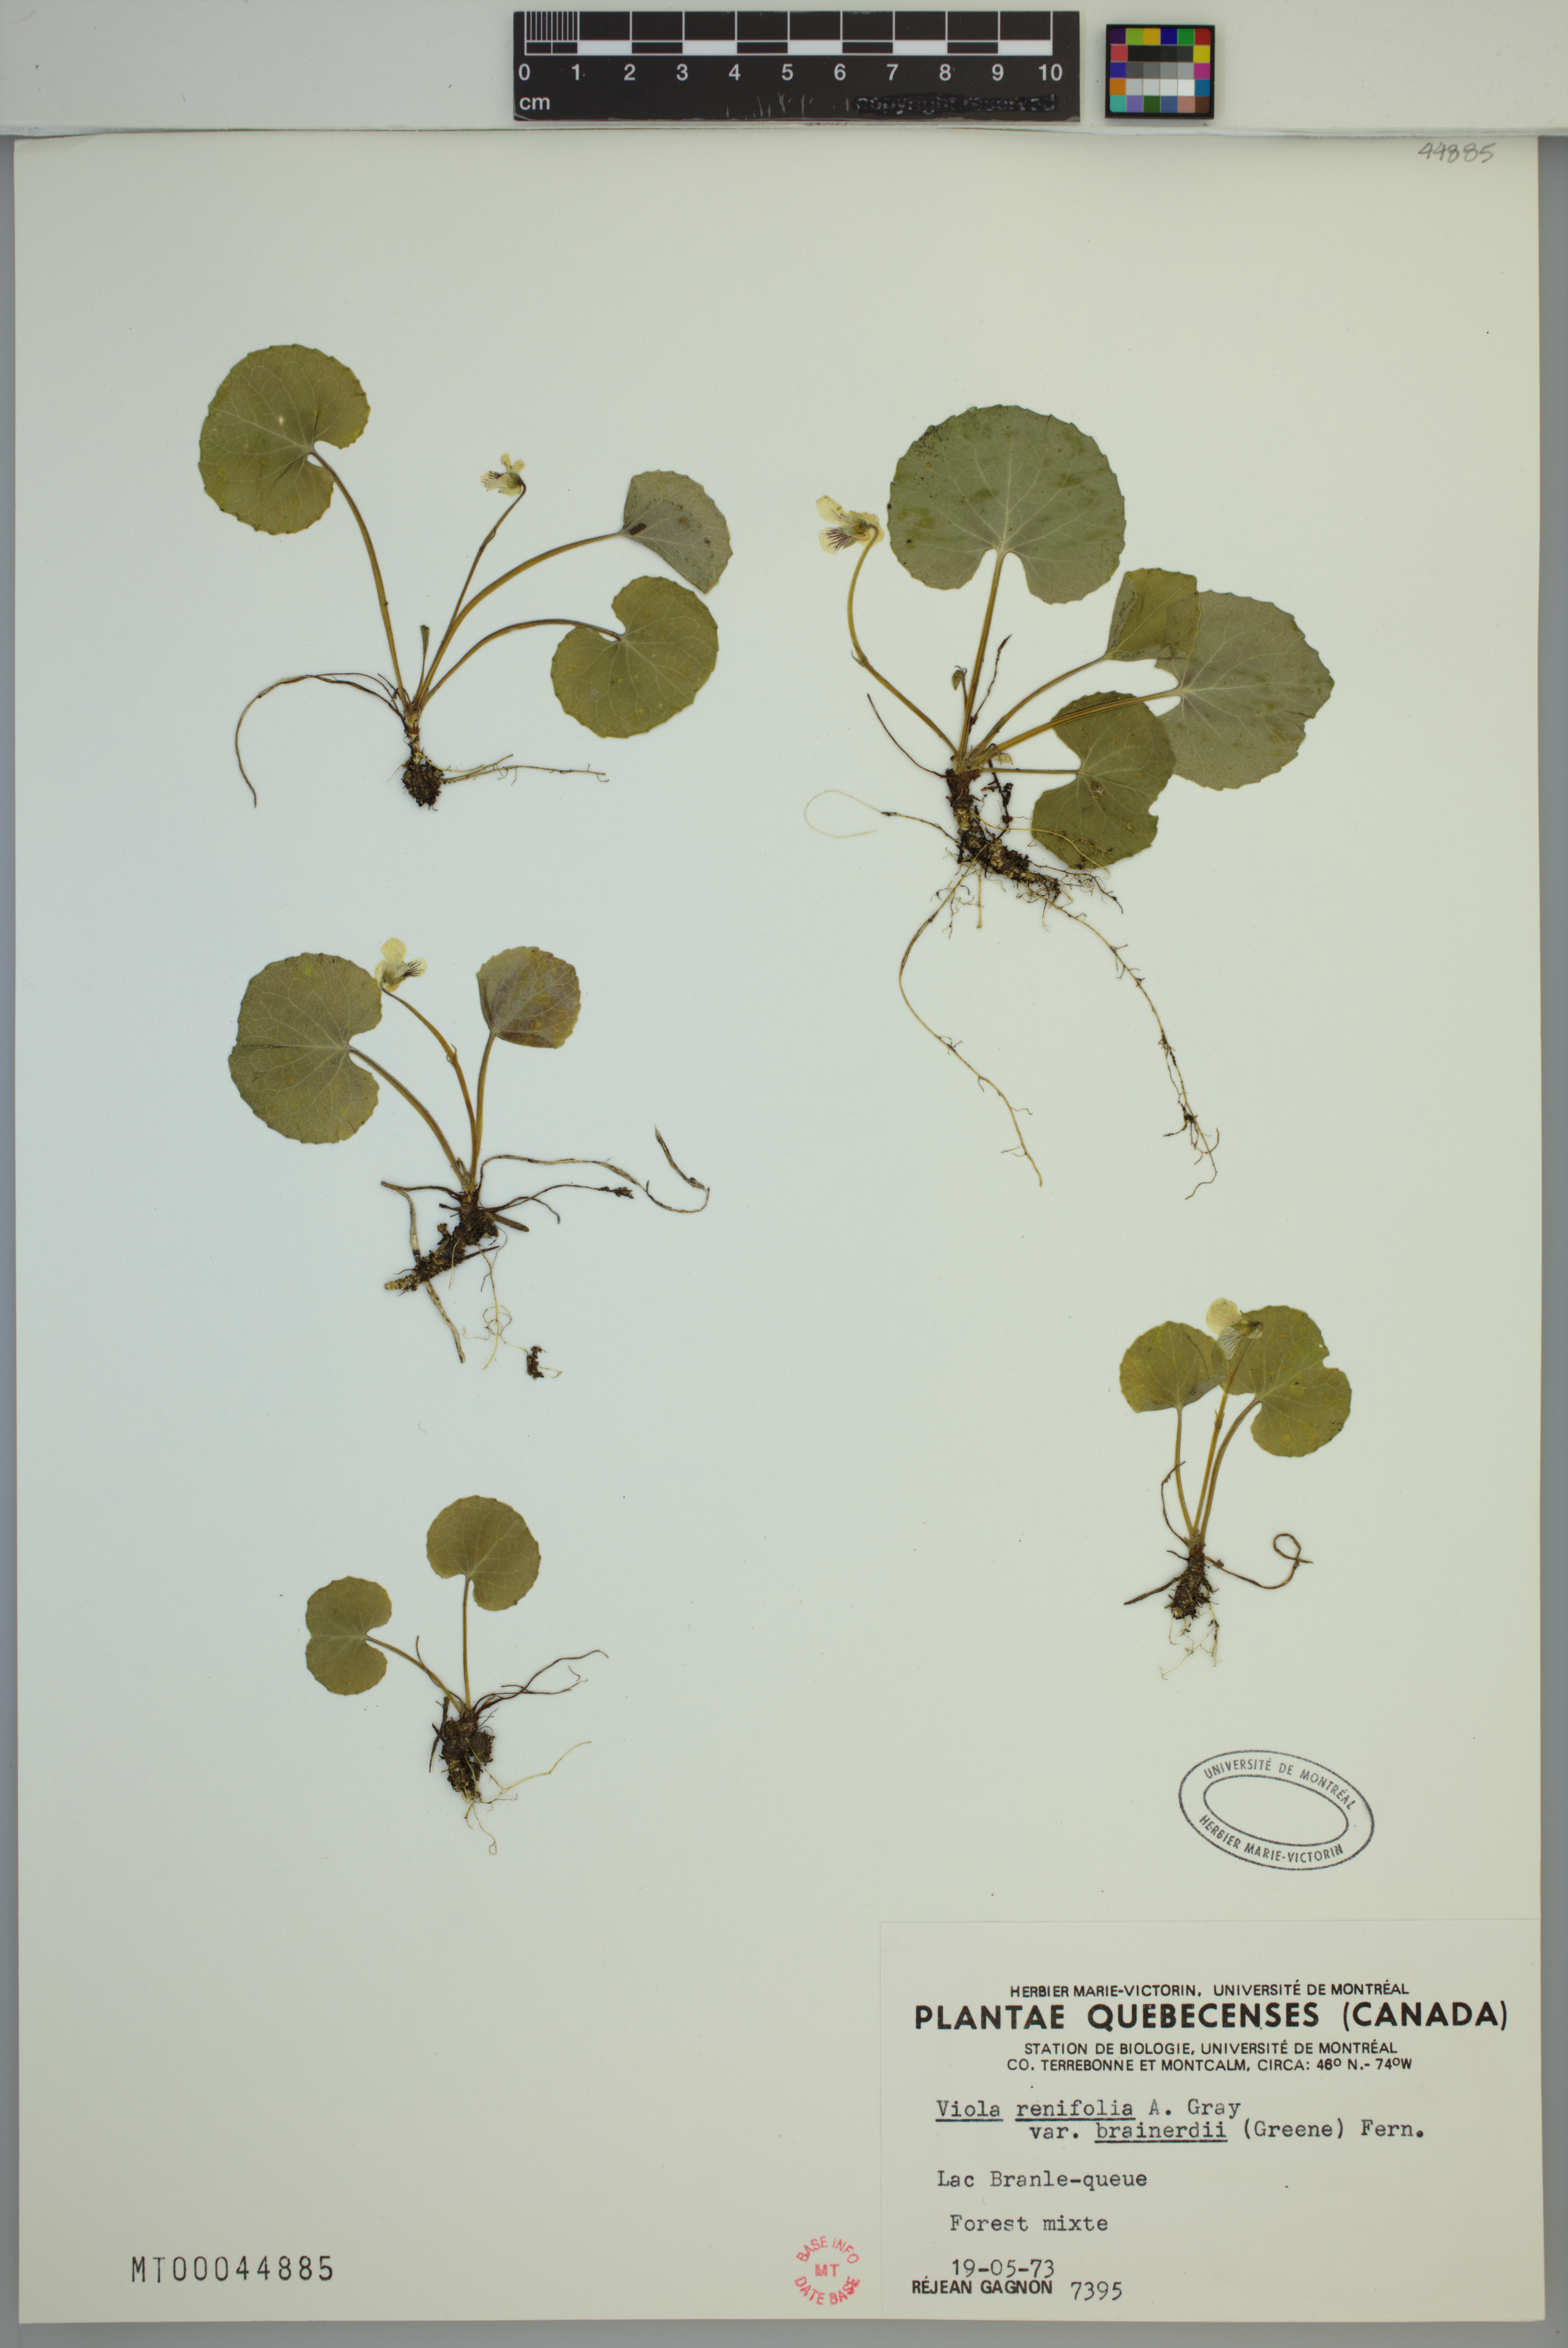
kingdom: Plantae
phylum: Tracheophyta
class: Magnoliopsida
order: Malpighiales
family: Violaceae
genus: Viola
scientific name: Viola renifolia
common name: Kidney-leaf violet
